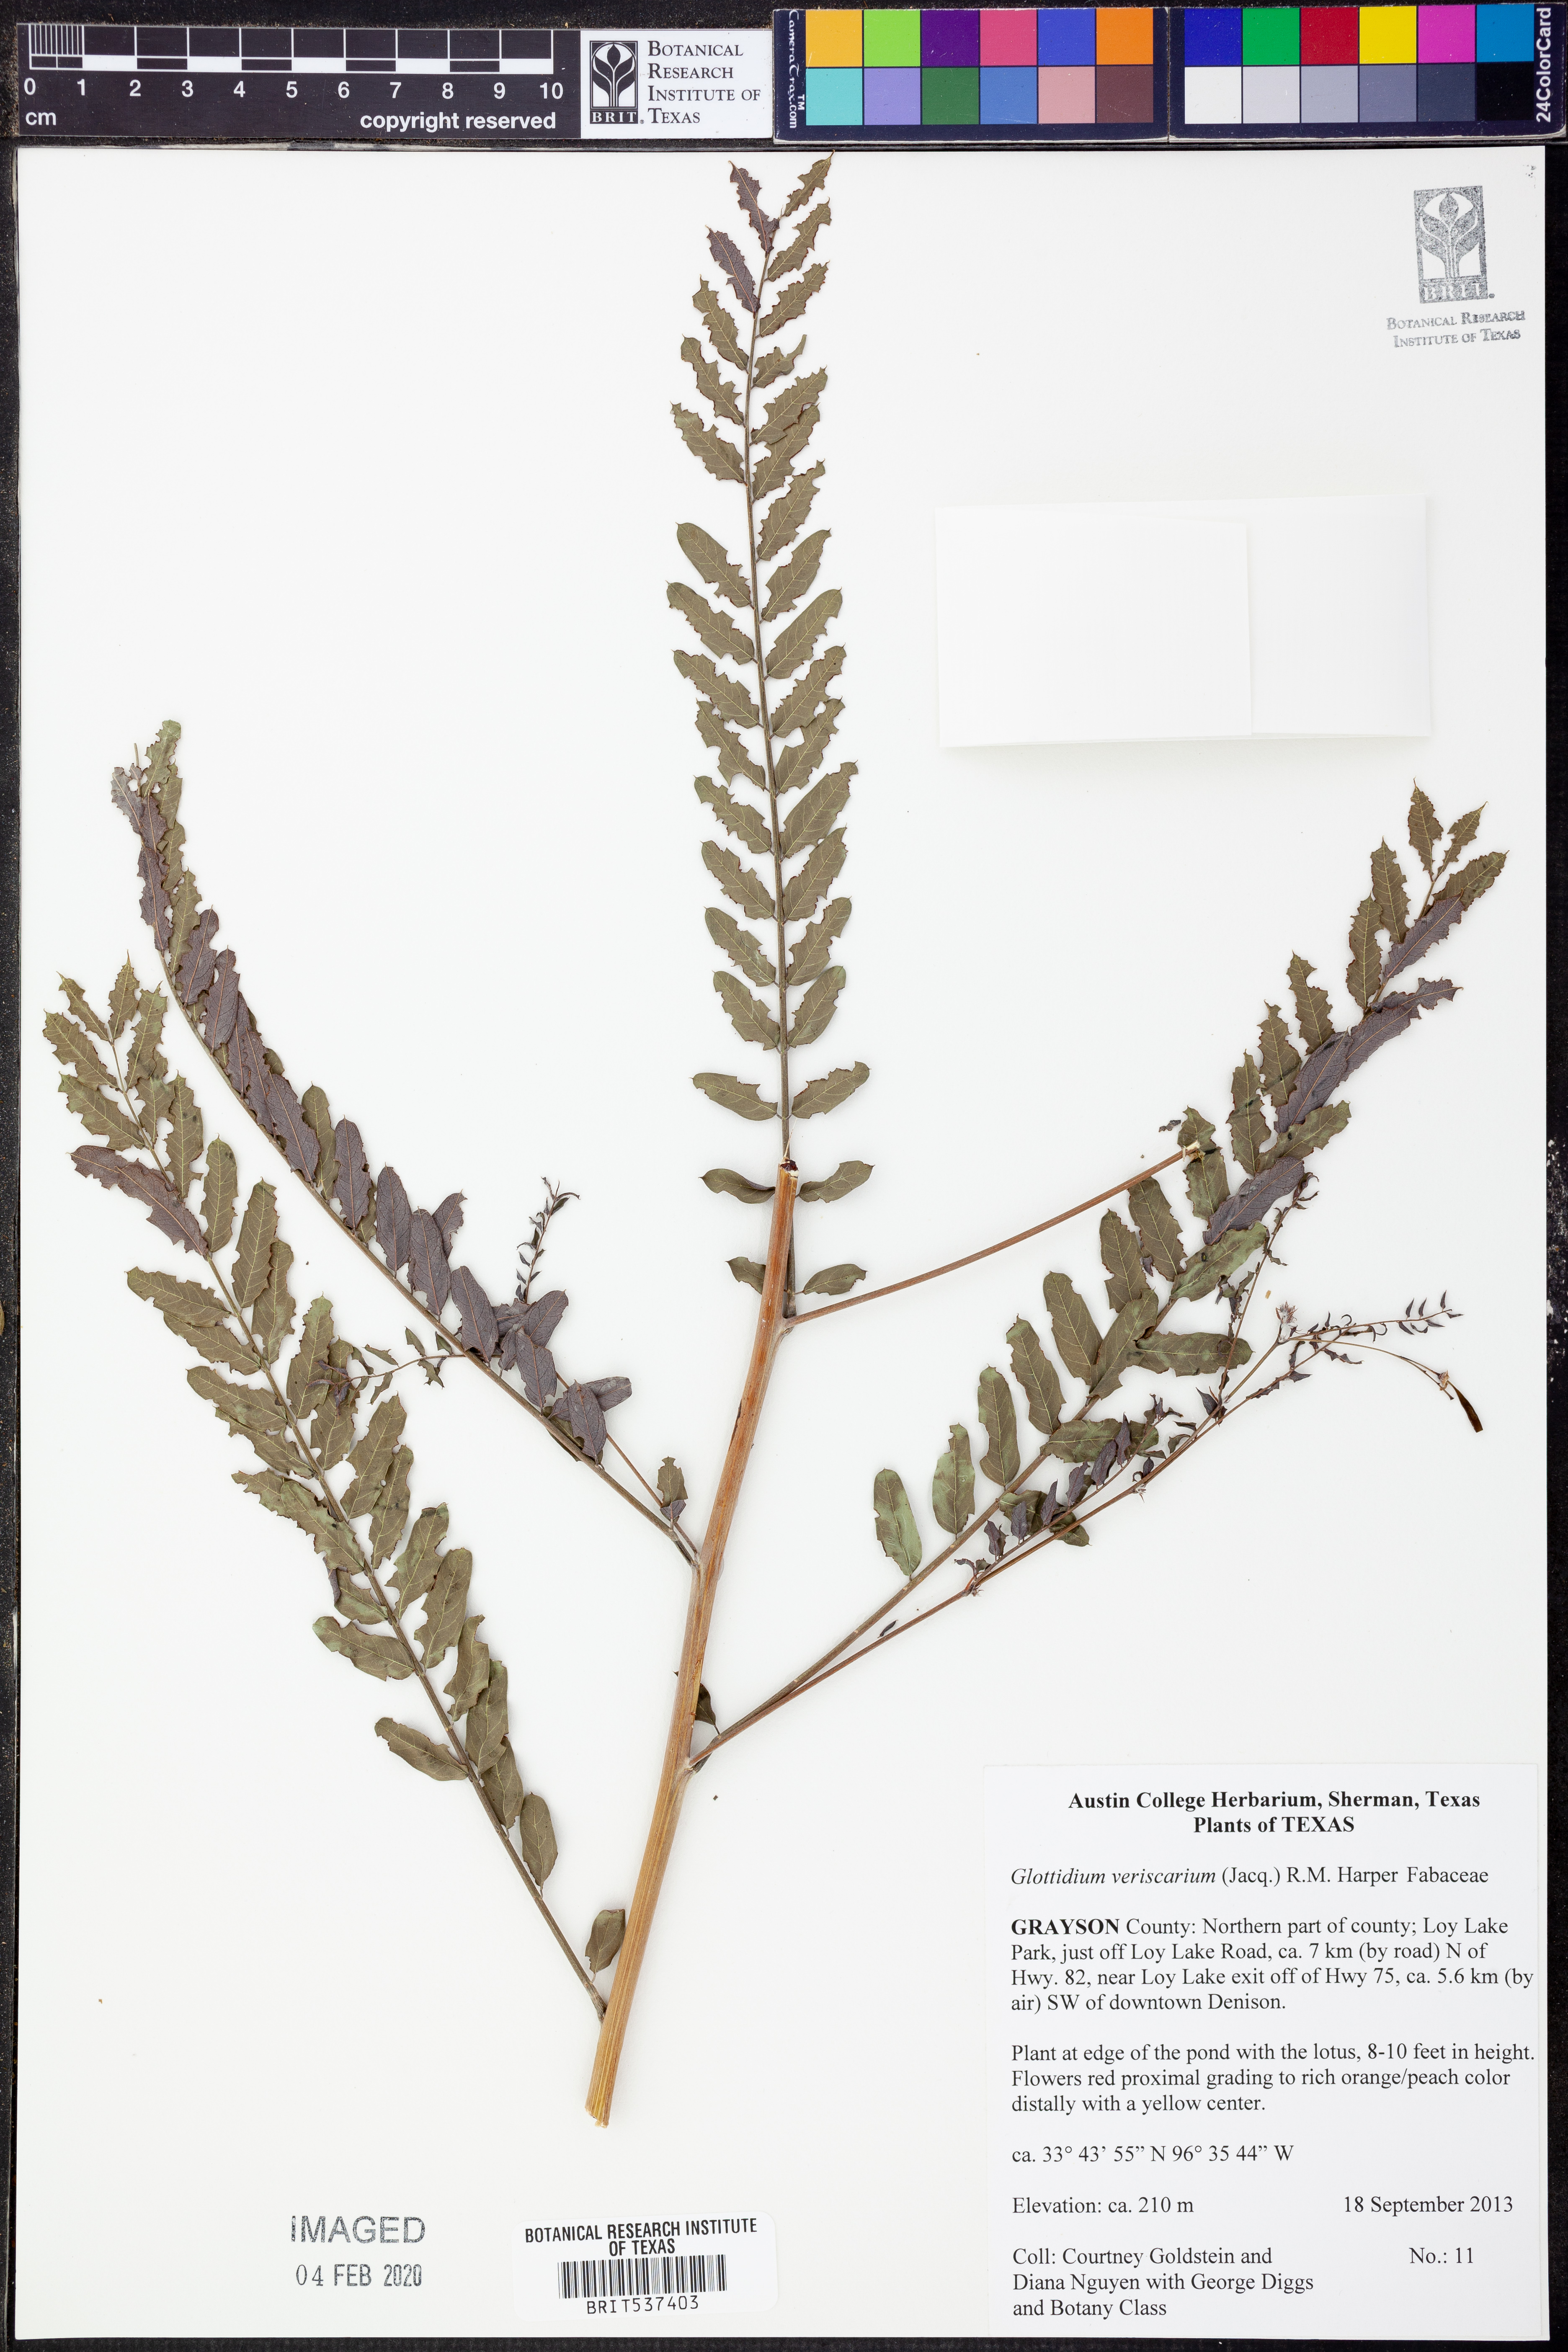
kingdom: Plantae
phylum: Tracheophyta
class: Magnoliopsida
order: Fabales
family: Fabaceae
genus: Sesbania
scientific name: Sesbania vesicaria
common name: Bagpod
